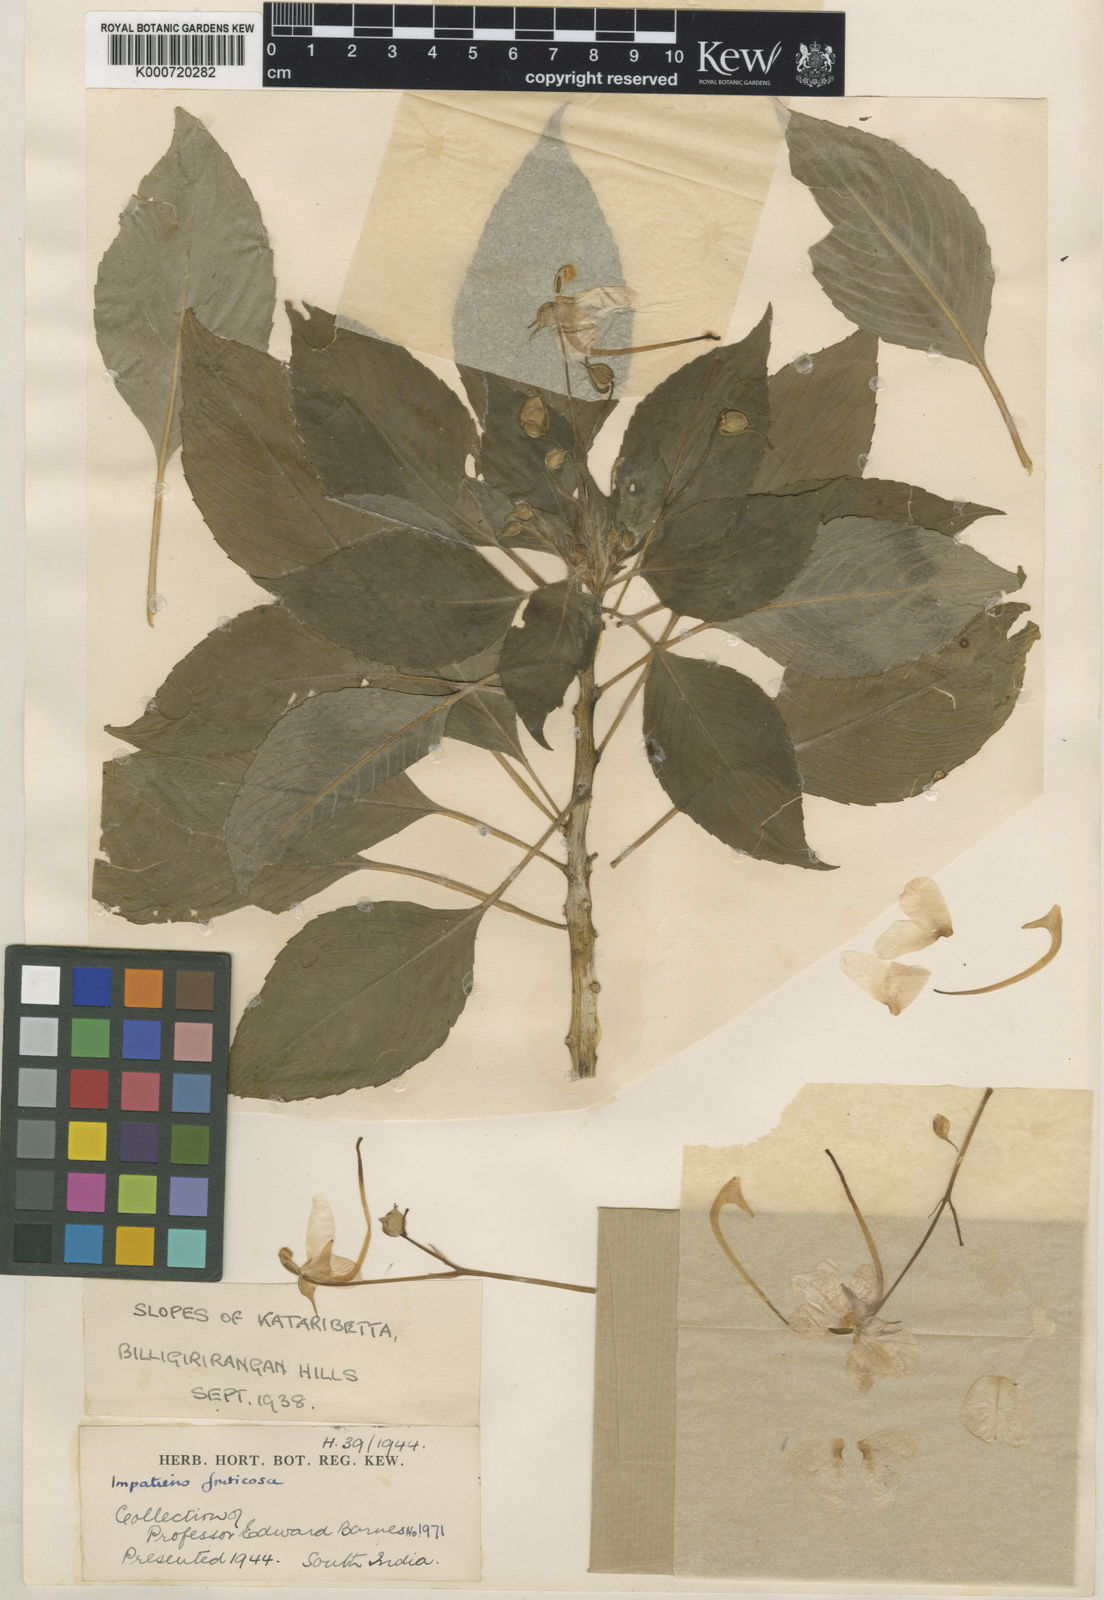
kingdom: Plantae
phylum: Tracheophyta
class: Magnoliopsida
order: Ericales
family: Balsaminaceae
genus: Impatiens
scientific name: Impatiens fruticosa
